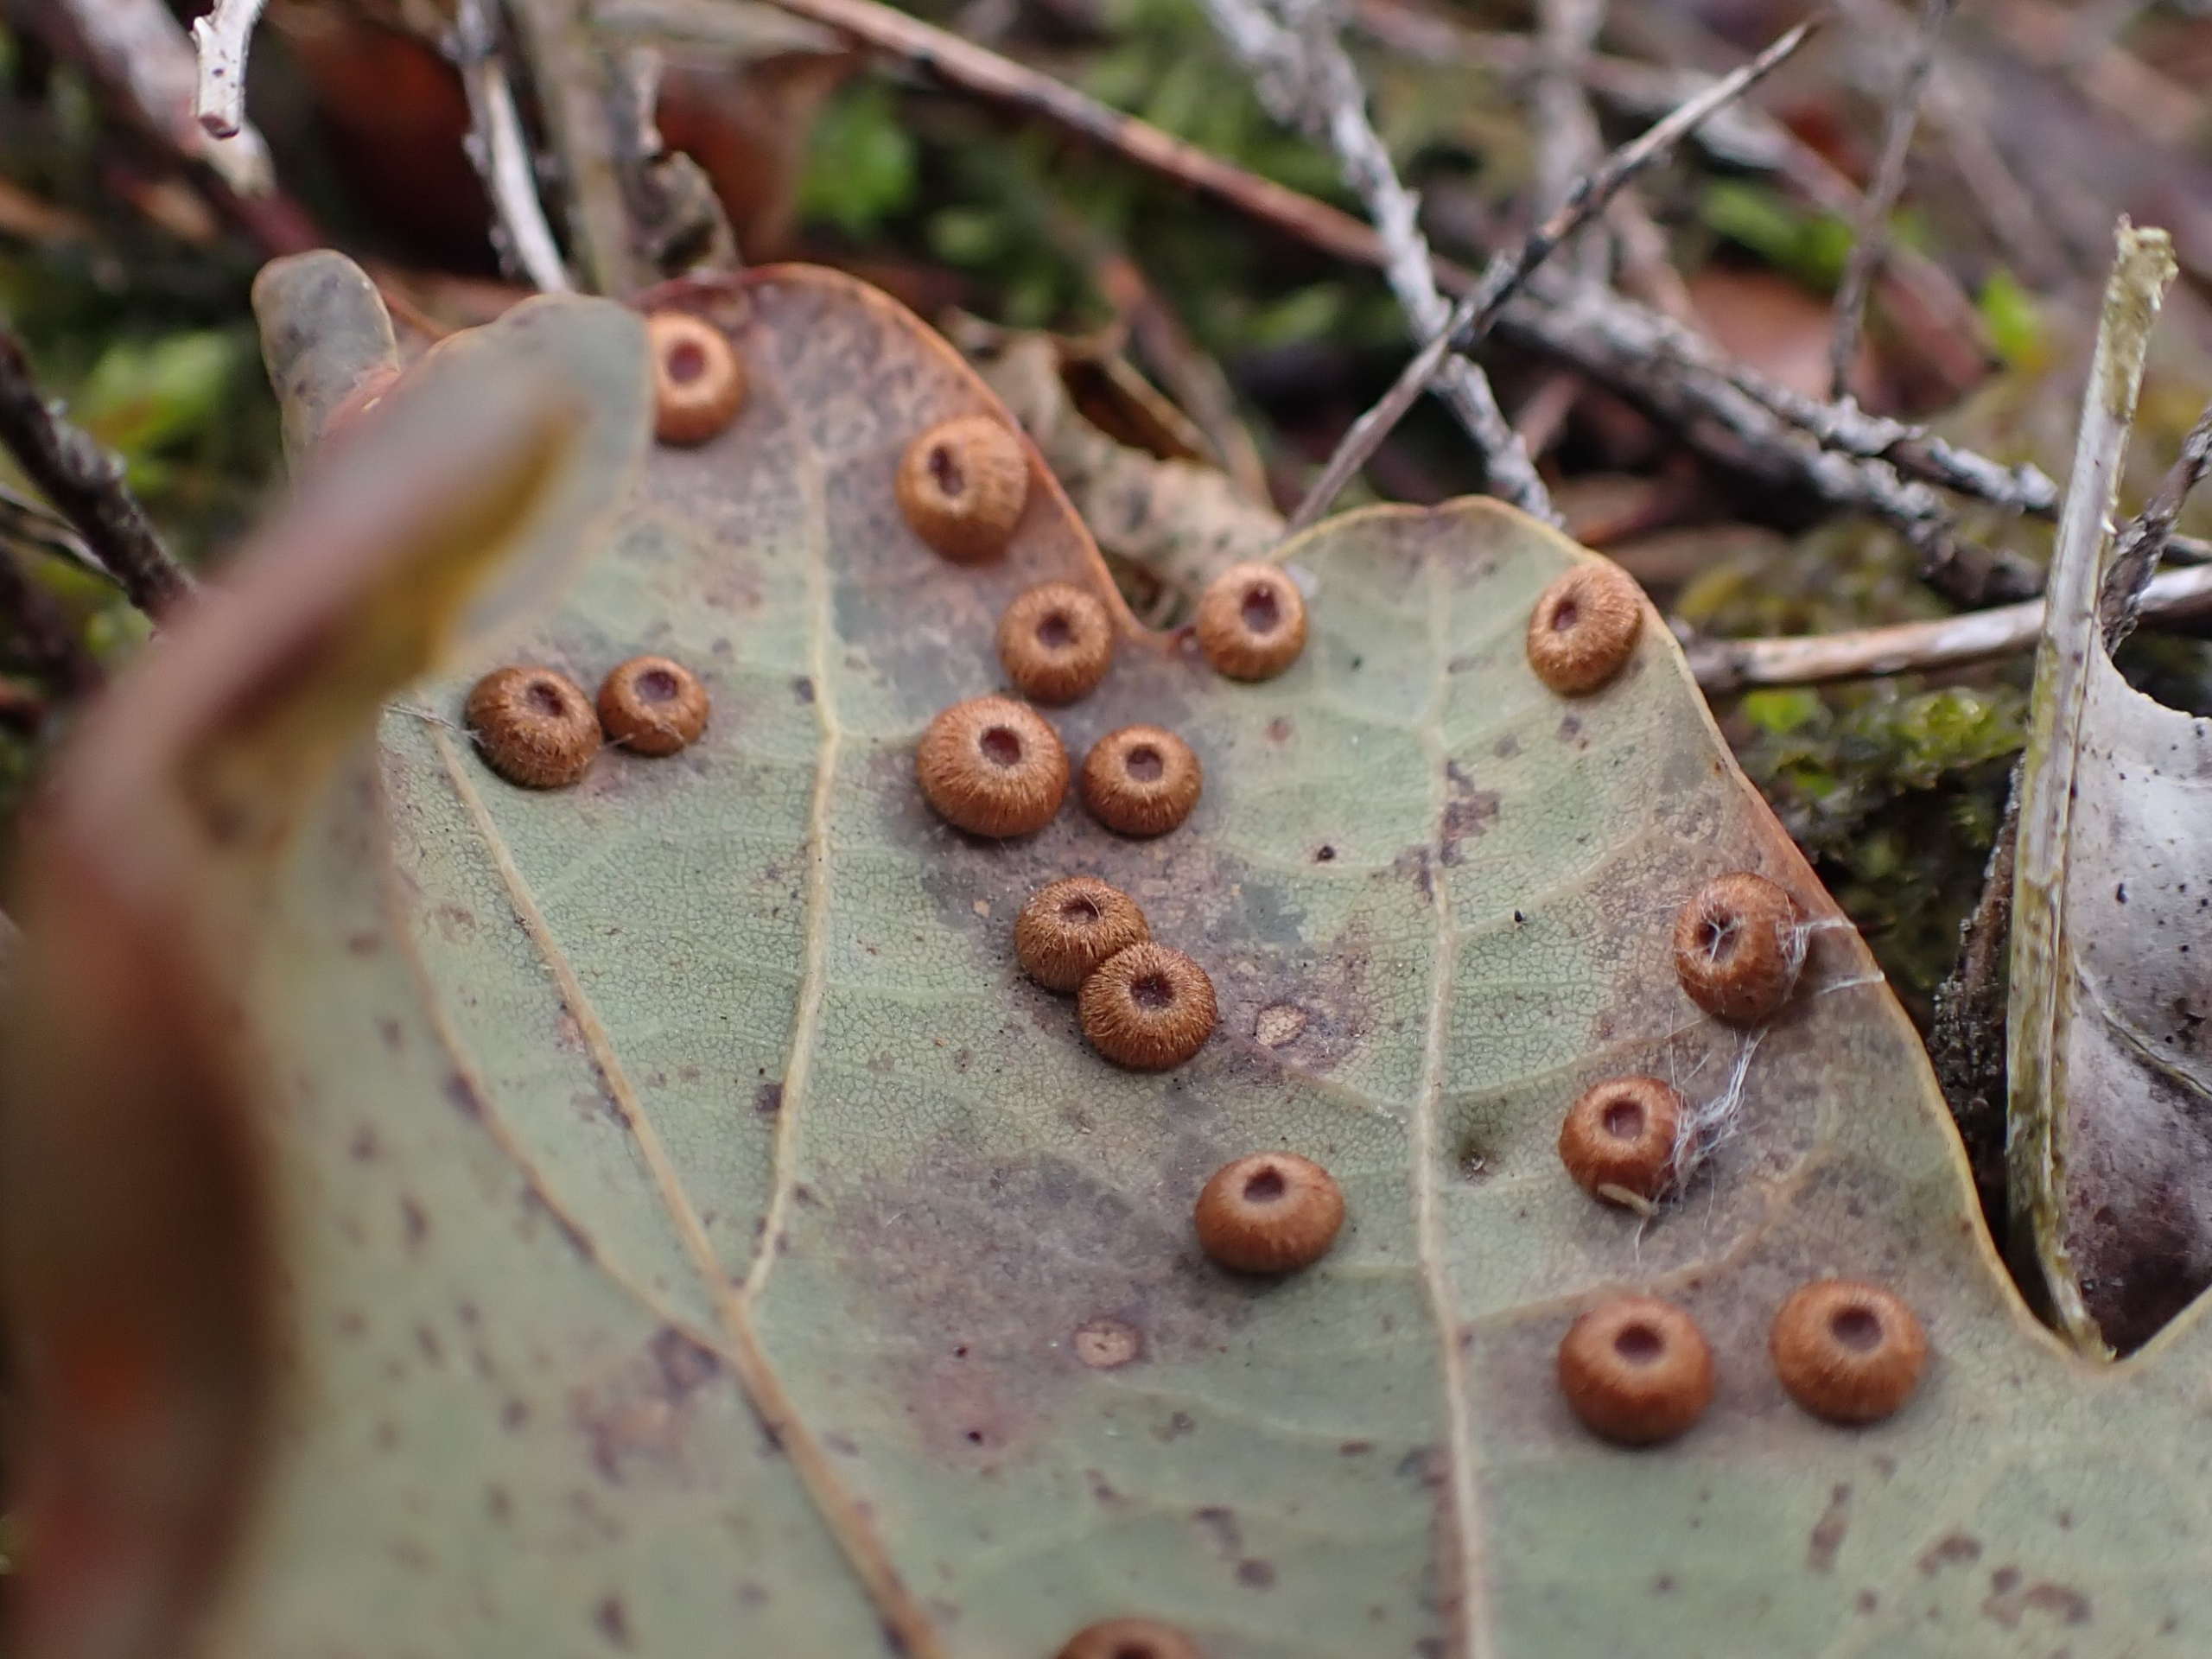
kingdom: Animalia
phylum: Arthropoda
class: Insecta
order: Hymenoptera
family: Cynipidae
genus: Neuroterus
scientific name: Neuroterus numismalis
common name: Knapgalhveps
